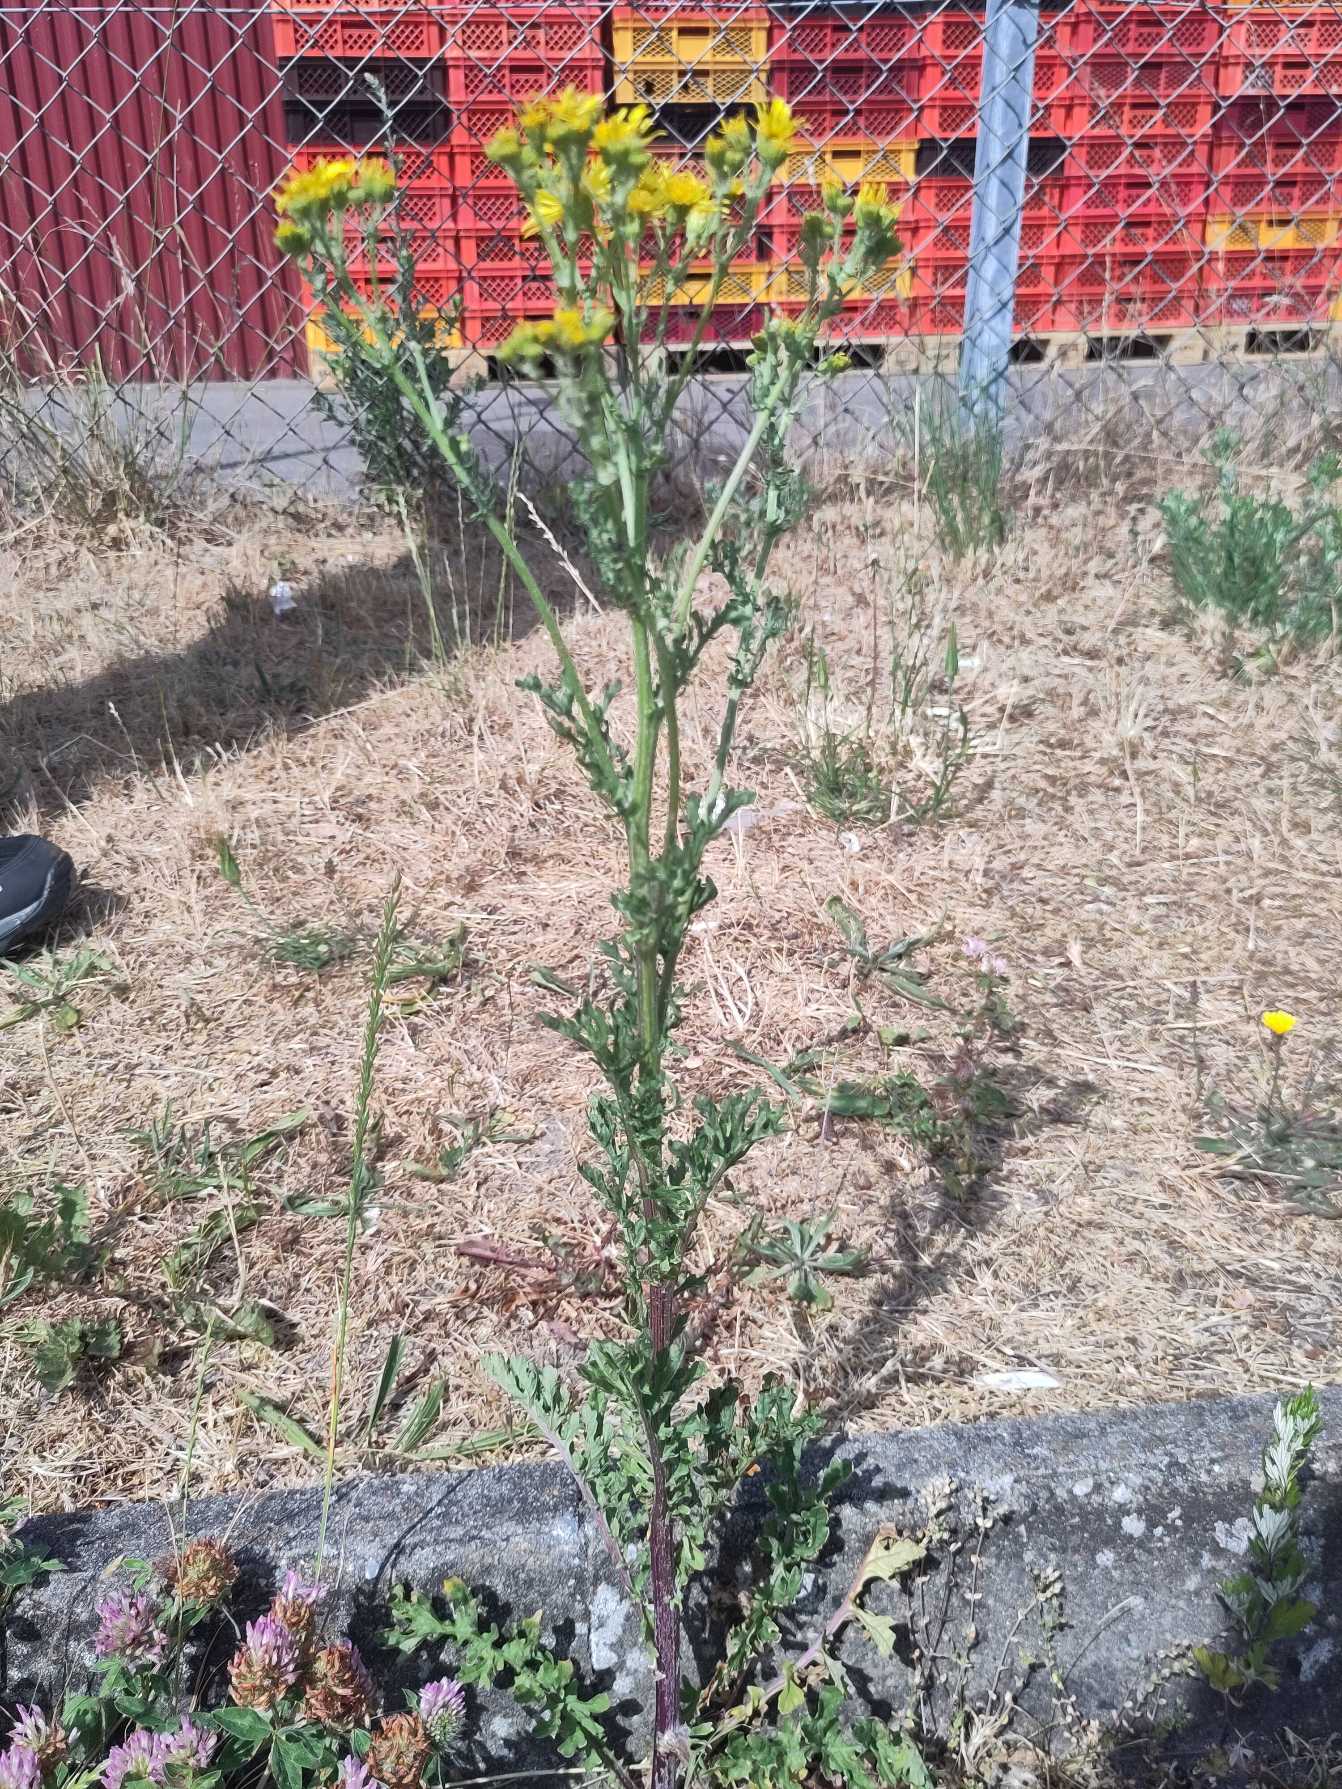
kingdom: Plantae
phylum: Tracheophyta
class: Magnoliopsida
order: Asterales
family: Asteraceae
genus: Jacobaea
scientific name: Jacobaea vulgaris
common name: Eng-brandbæger
